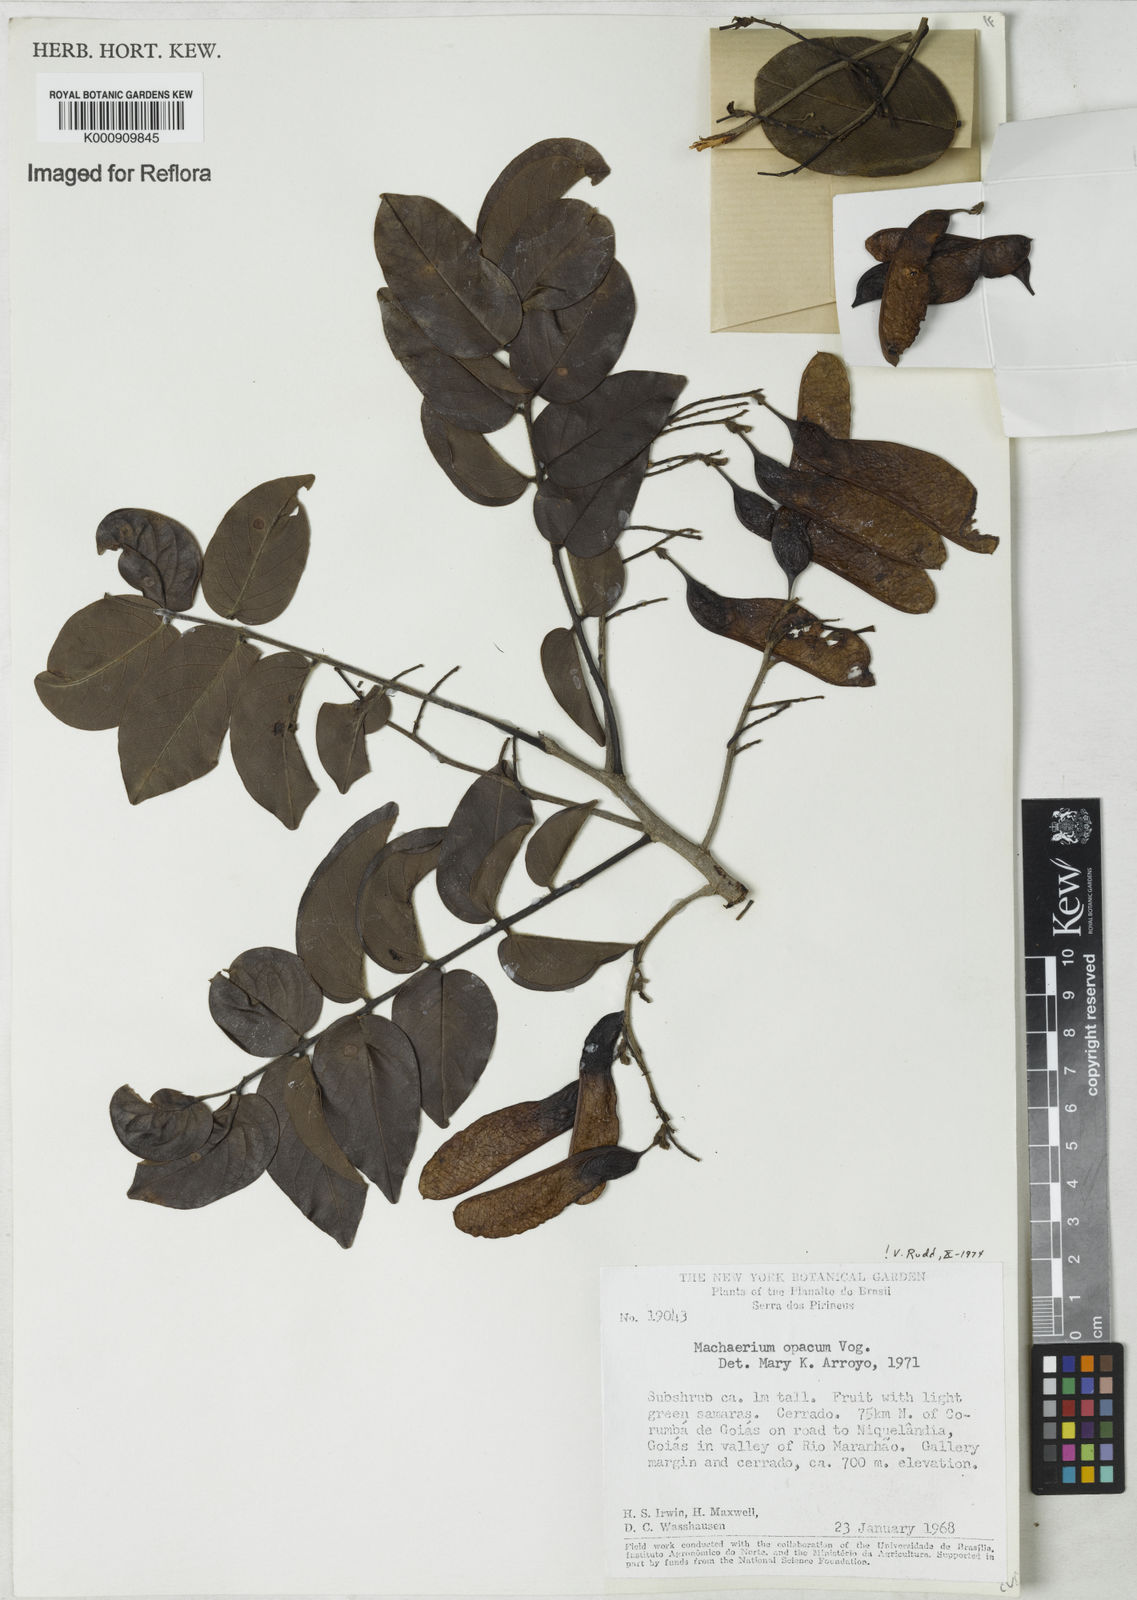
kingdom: Plantae
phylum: Tracheophyta
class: Magnoliopsida
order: Fabales
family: Fabaceae
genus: Machaerium
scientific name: Machaerium opacum
